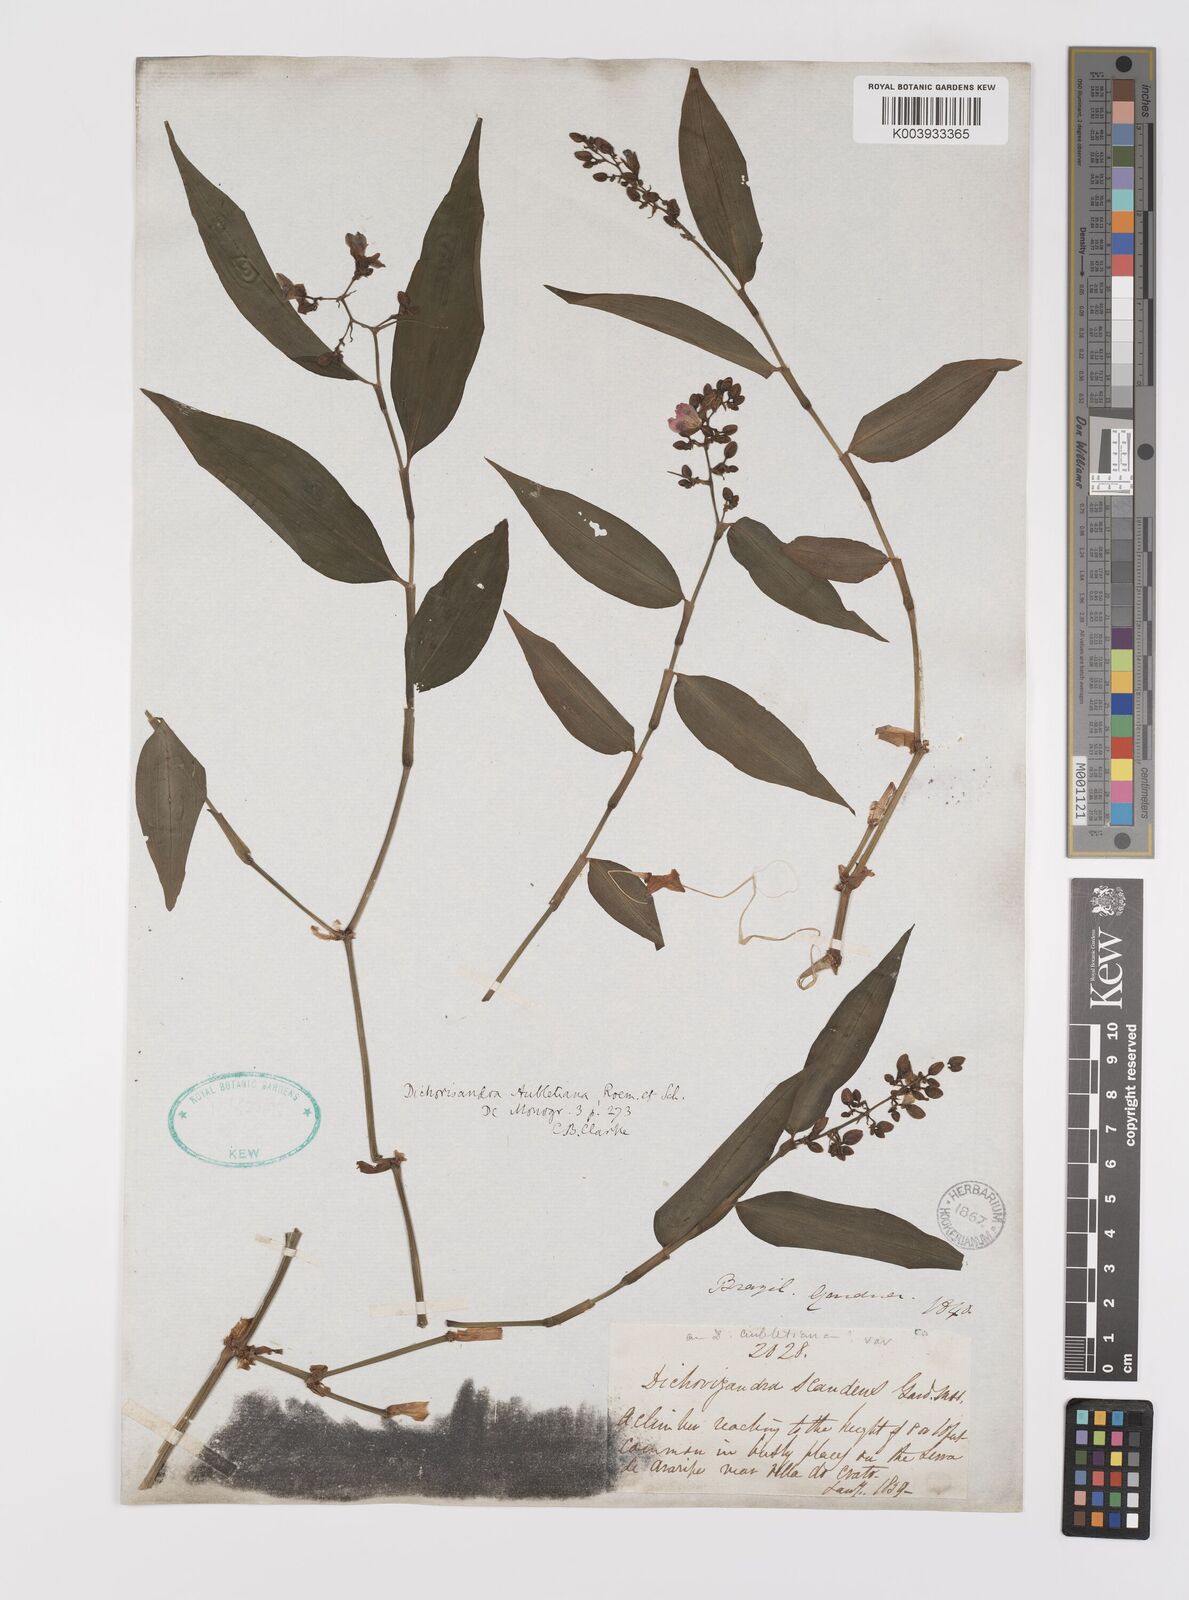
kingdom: Plantae
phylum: Tracheophyta
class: Liliopsida
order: Commelinales
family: Commelinaceae
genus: Dichorisandra
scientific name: Dichorisandra hexandra
